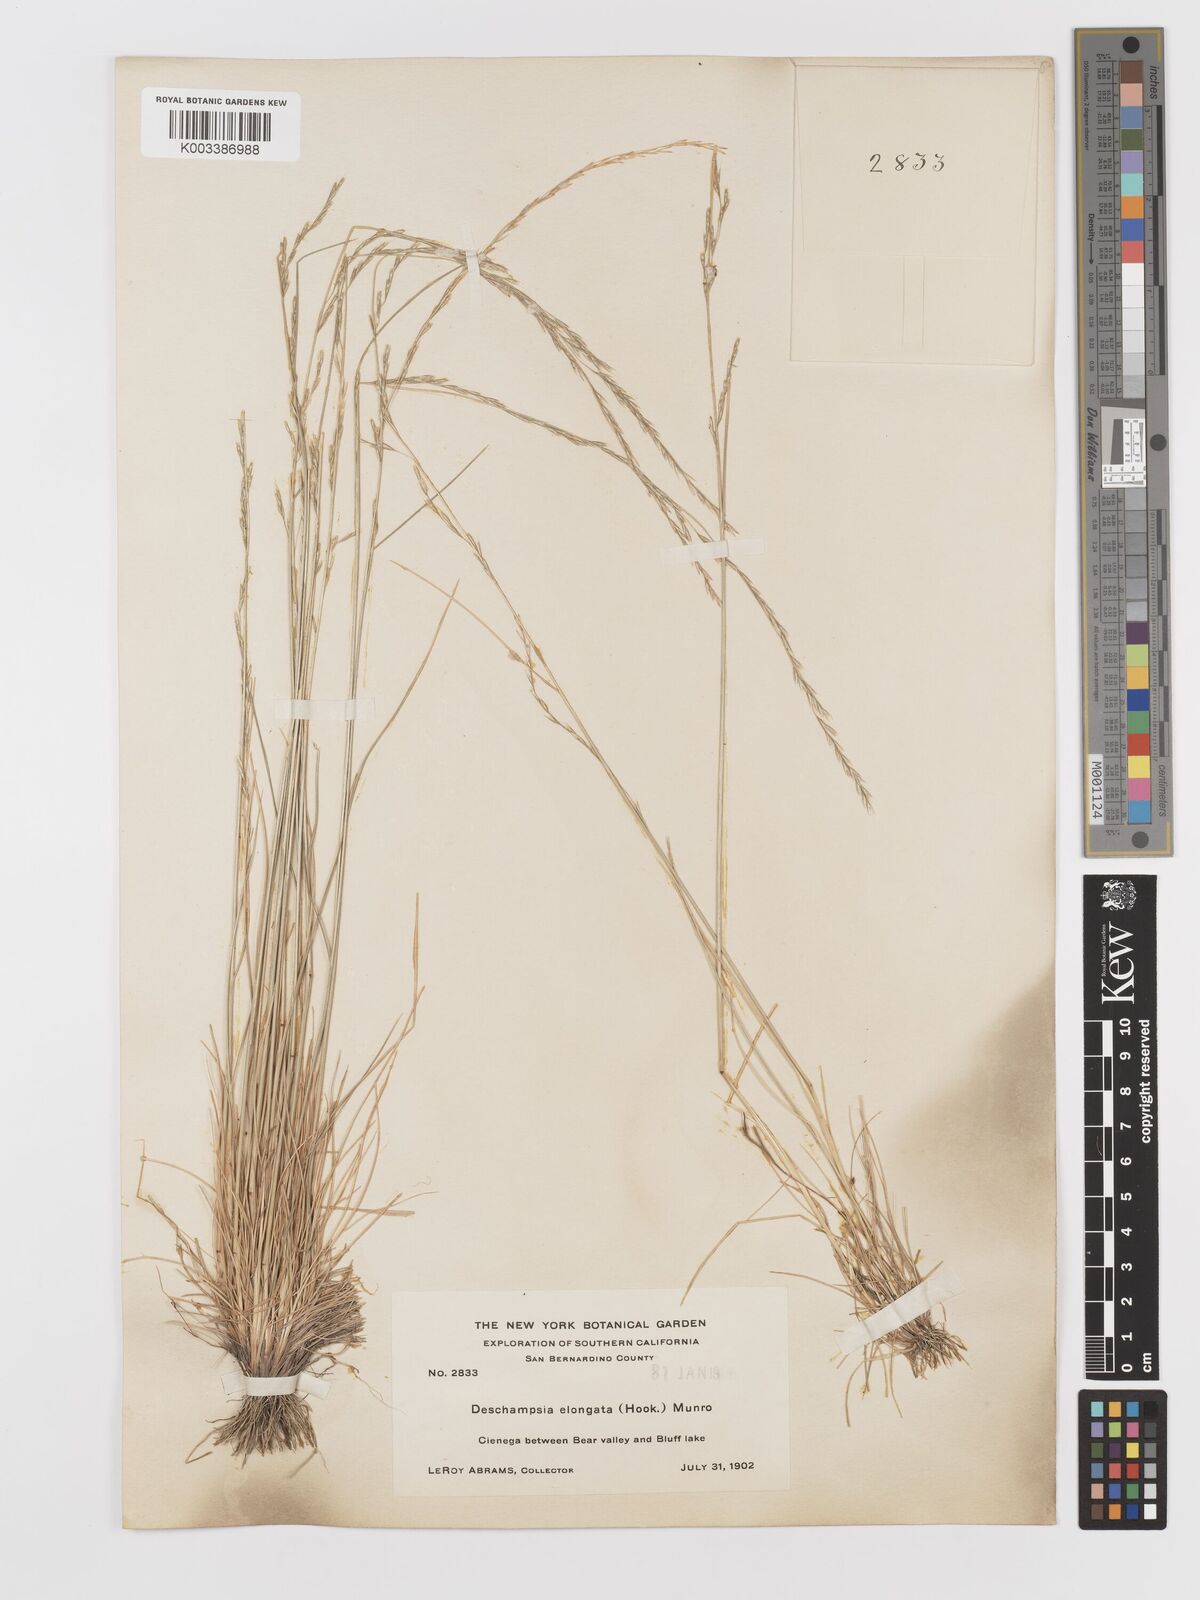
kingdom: Plantae
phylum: Tracheophyta
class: Liliopsida
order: Poales
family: Poaceae
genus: Deschampsia
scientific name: Deschampsia elongata
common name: Slender hairgrass
